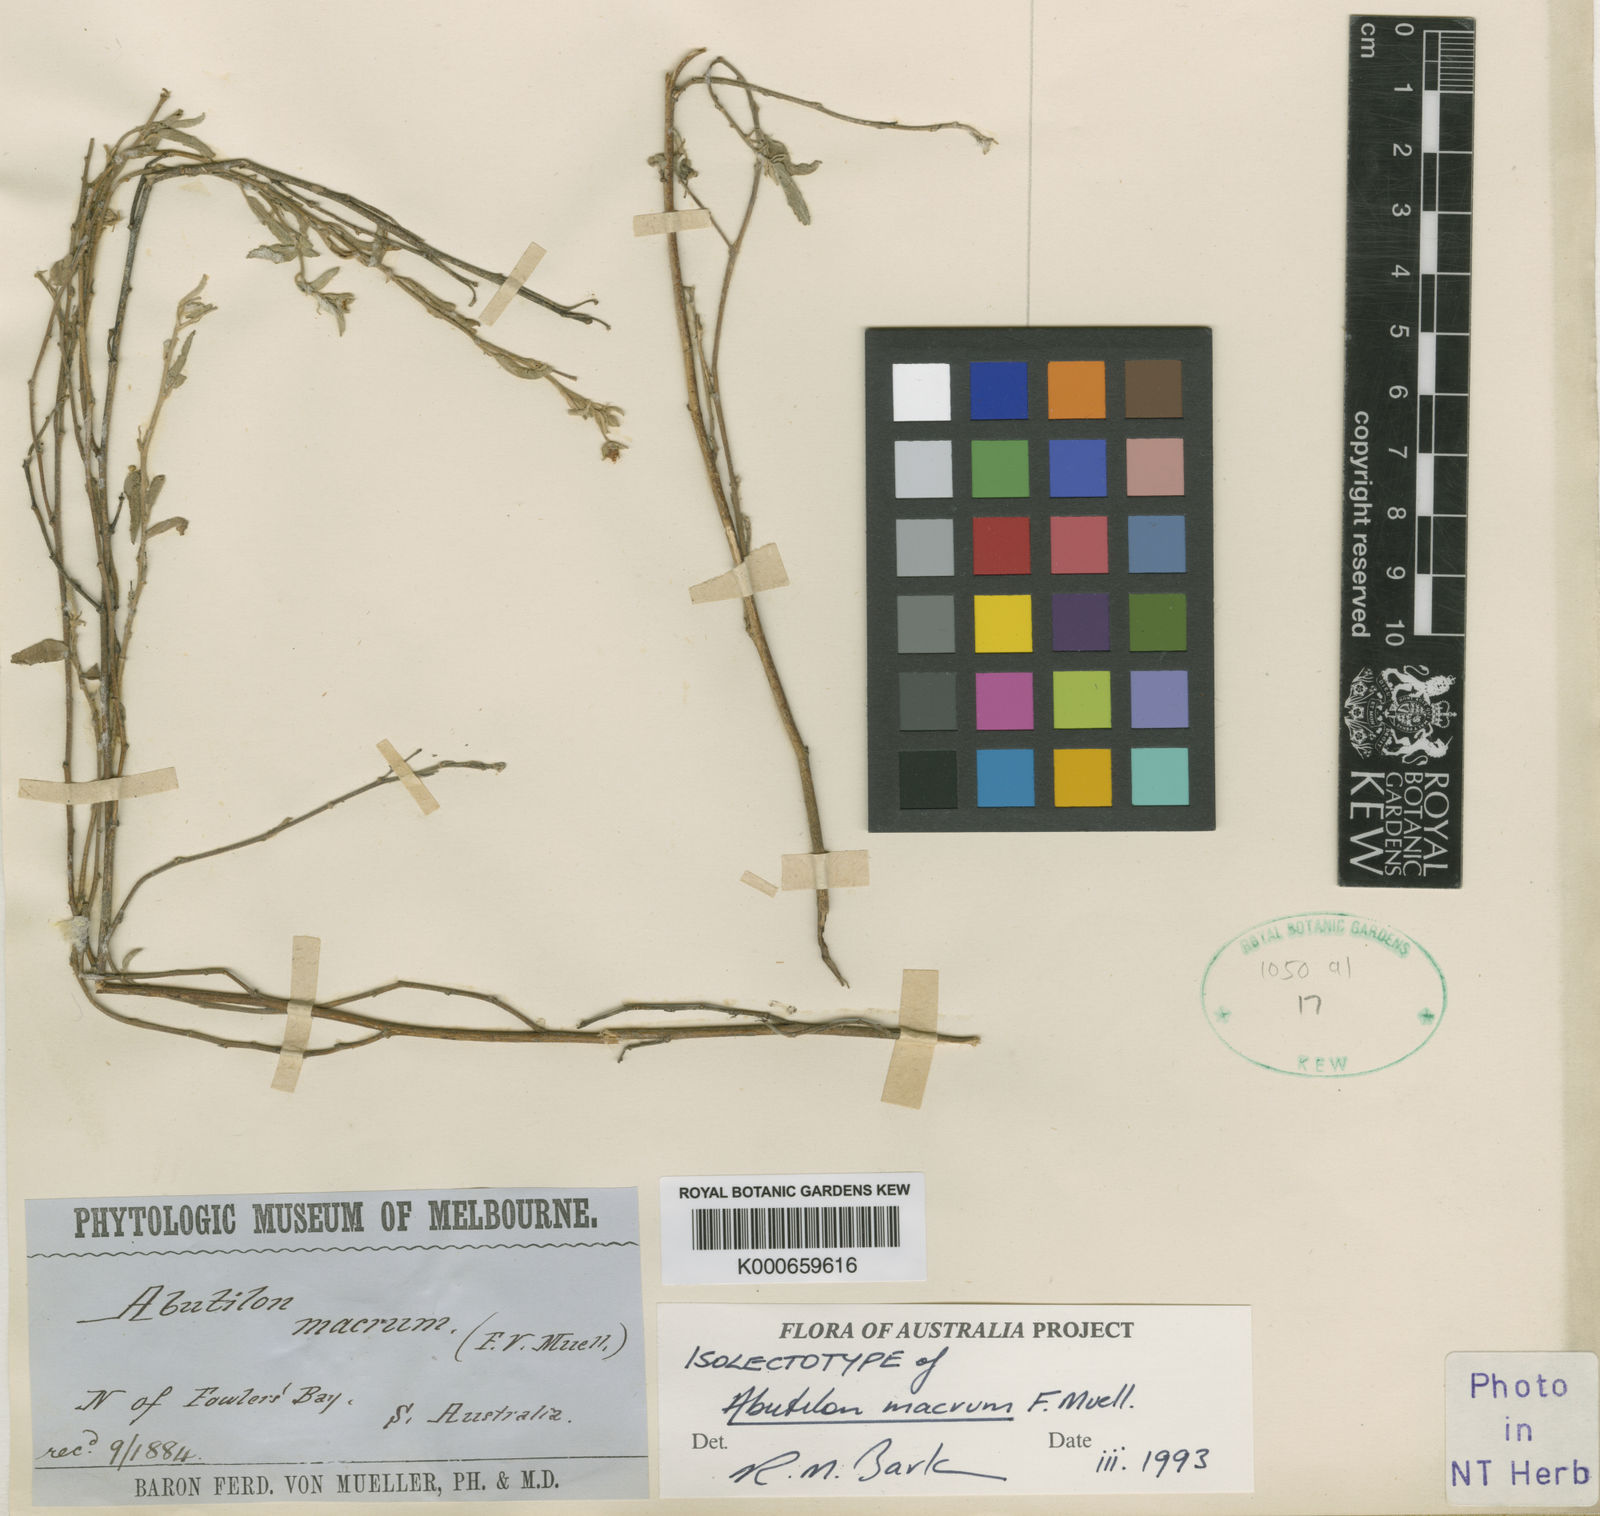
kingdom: Plantae
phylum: Tracheophyta
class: Magnoliopsida
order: Malvales
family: Malvaceae
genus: Abutilon
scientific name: Abutilon theophrasti
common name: Velvetleaf
